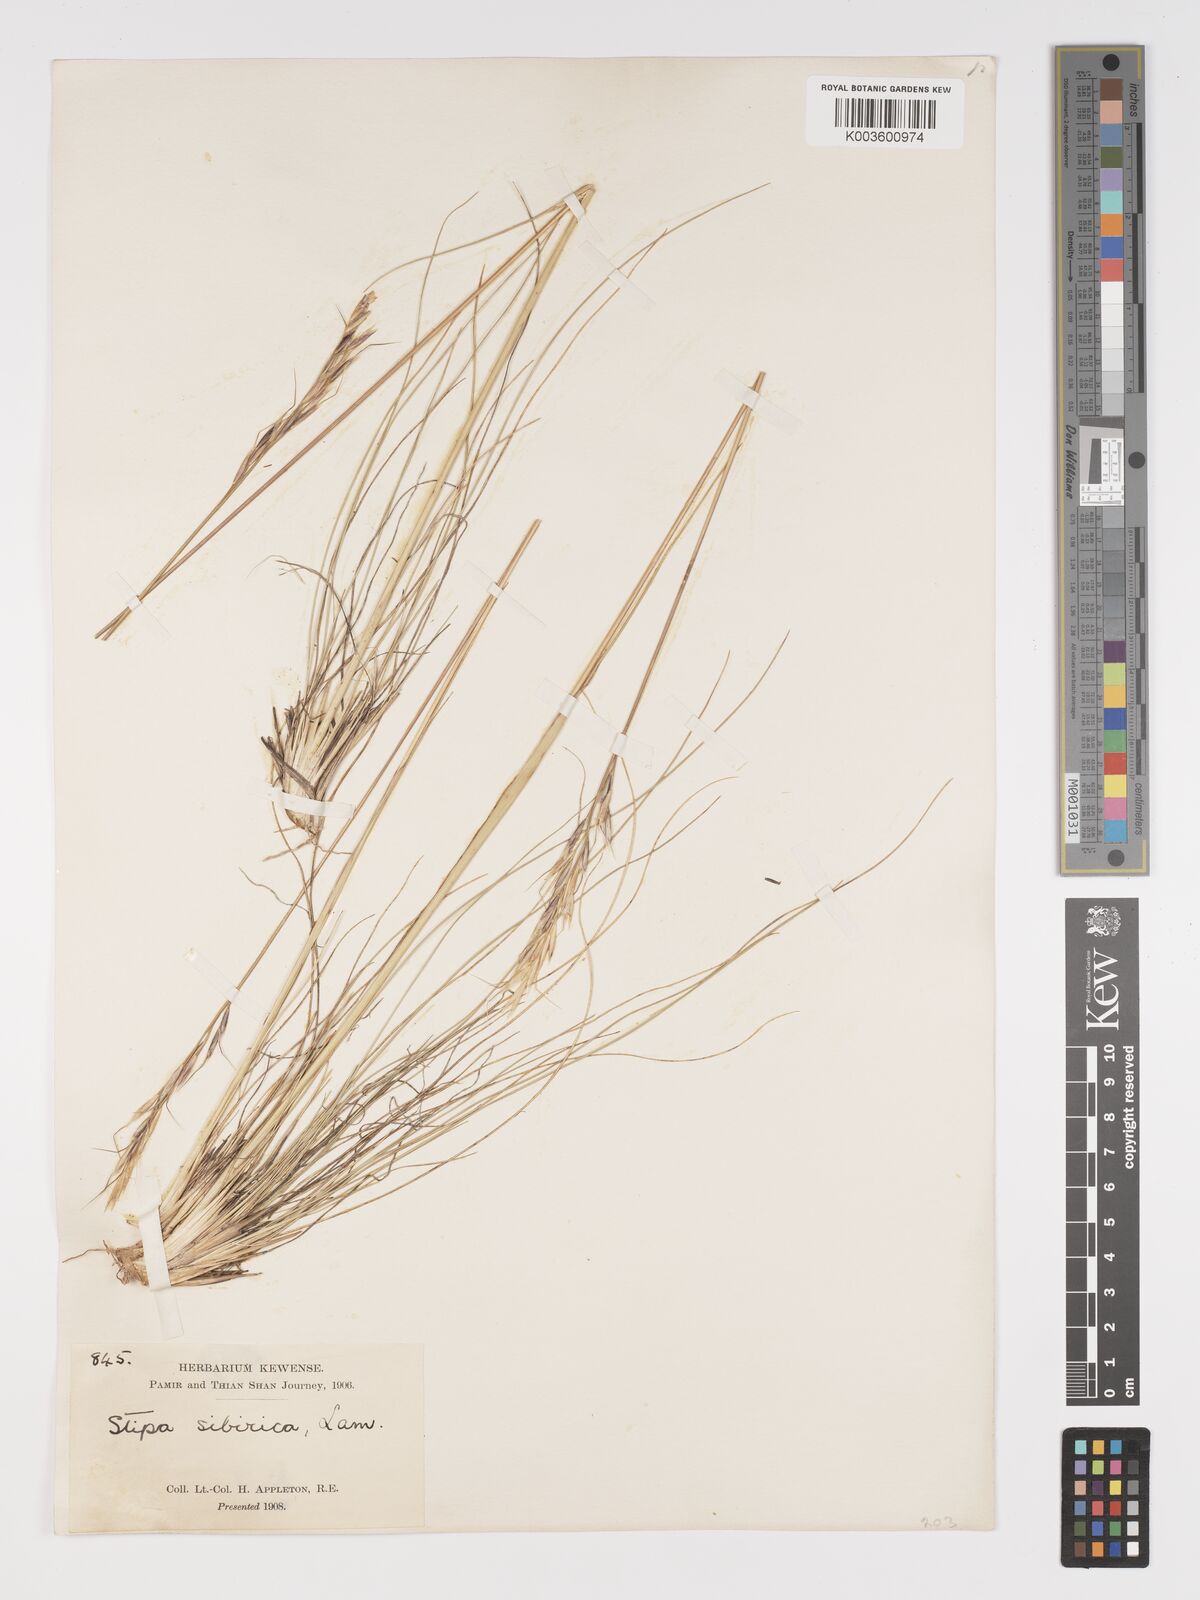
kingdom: Plantae
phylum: Tracheophyta
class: Liliopsida
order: Poales
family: Poaceae
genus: Achnatherum
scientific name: Achnatherum sibiricum
